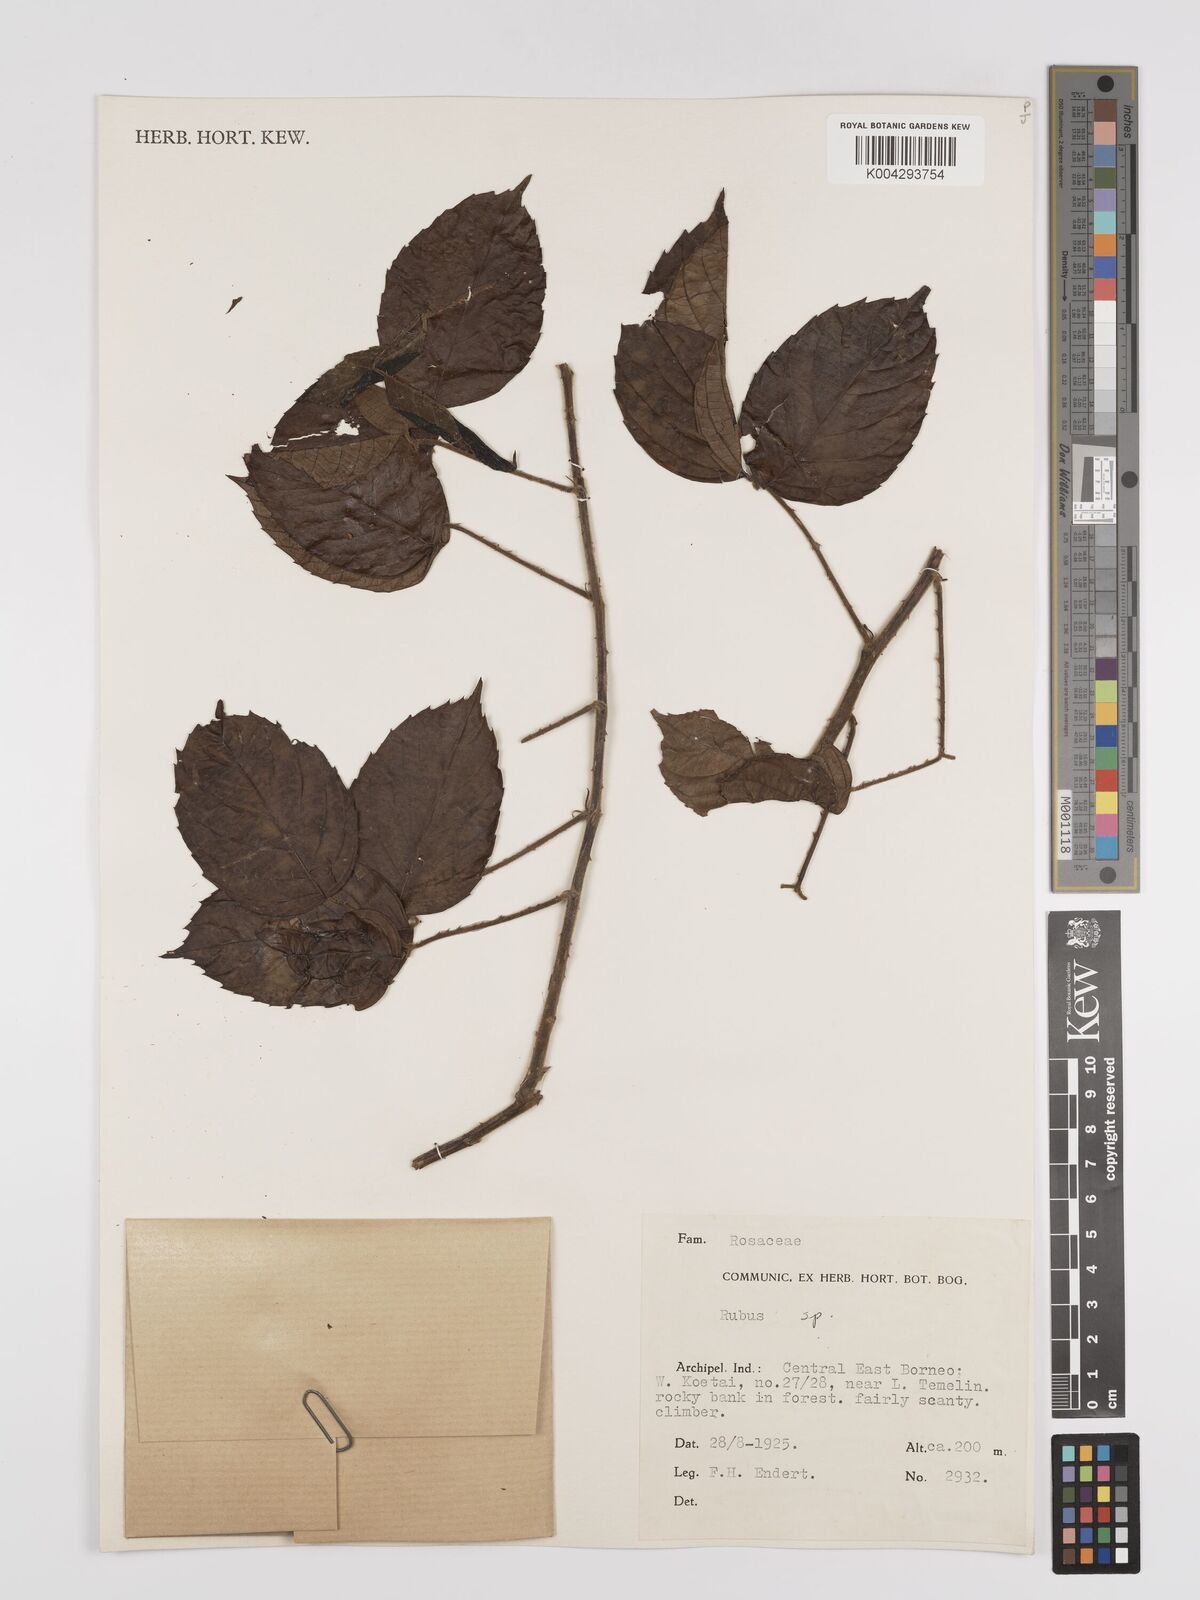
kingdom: Plantae
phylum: Tracheophyta
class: Magnoliopsida
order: Rosales
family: Rosaceae
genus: Rubus
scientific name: Rubus clementis
